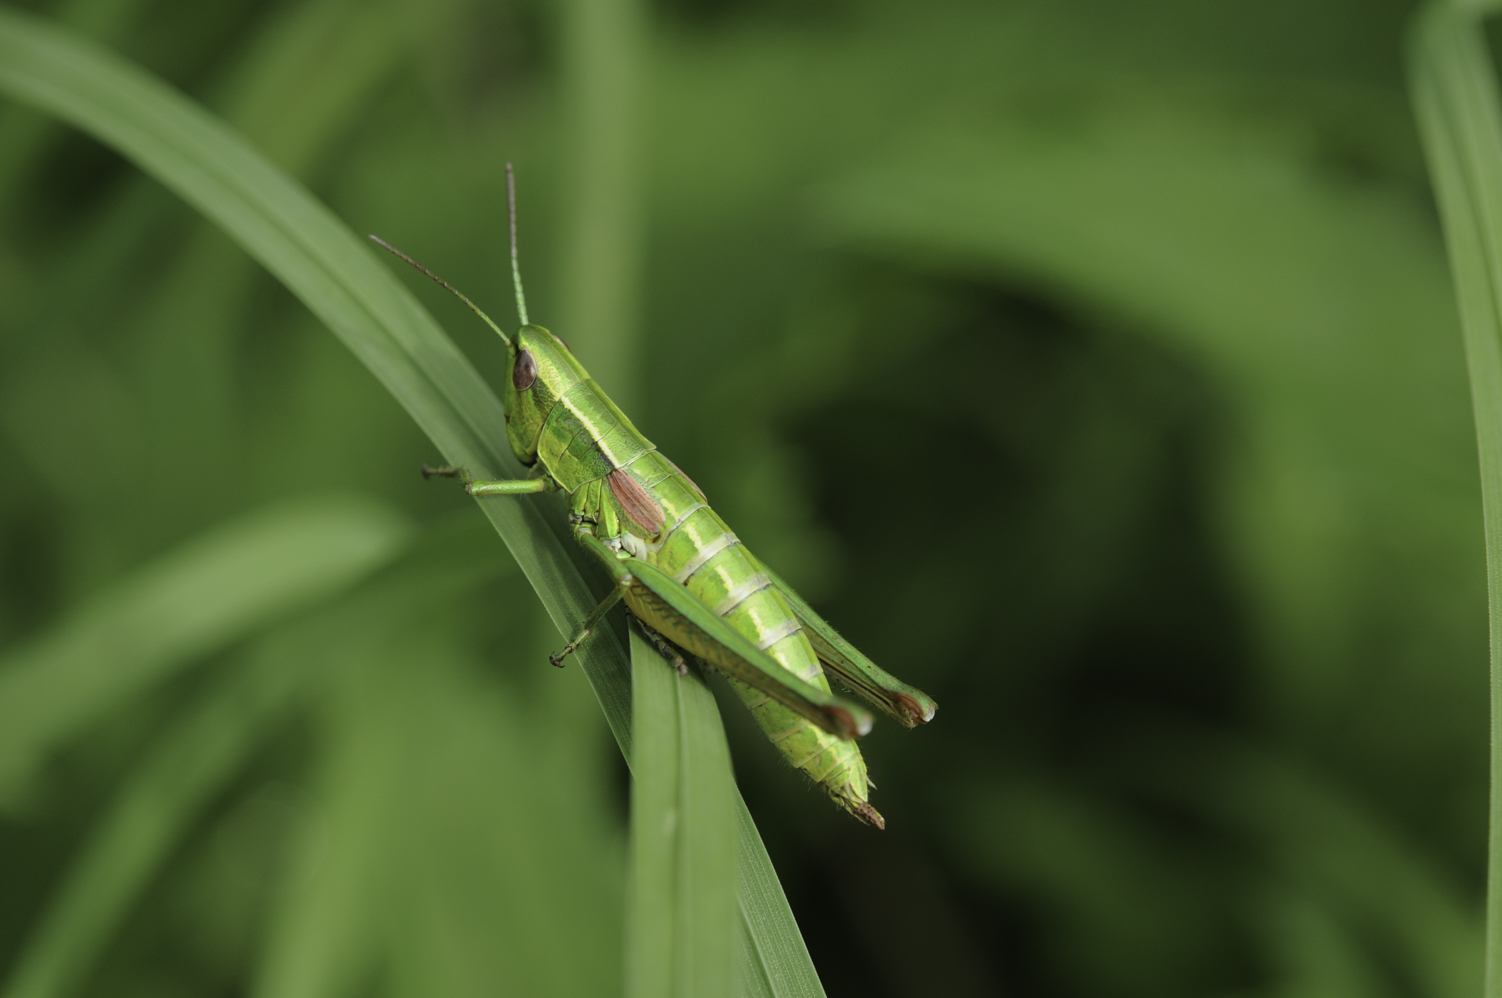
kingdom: Animalia
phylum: Arthropoda
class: Insecta
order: Orthoptera
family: Acrididae
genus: Euthystira
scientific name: Euthystira brachyptera
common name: Small gold grasshopper
